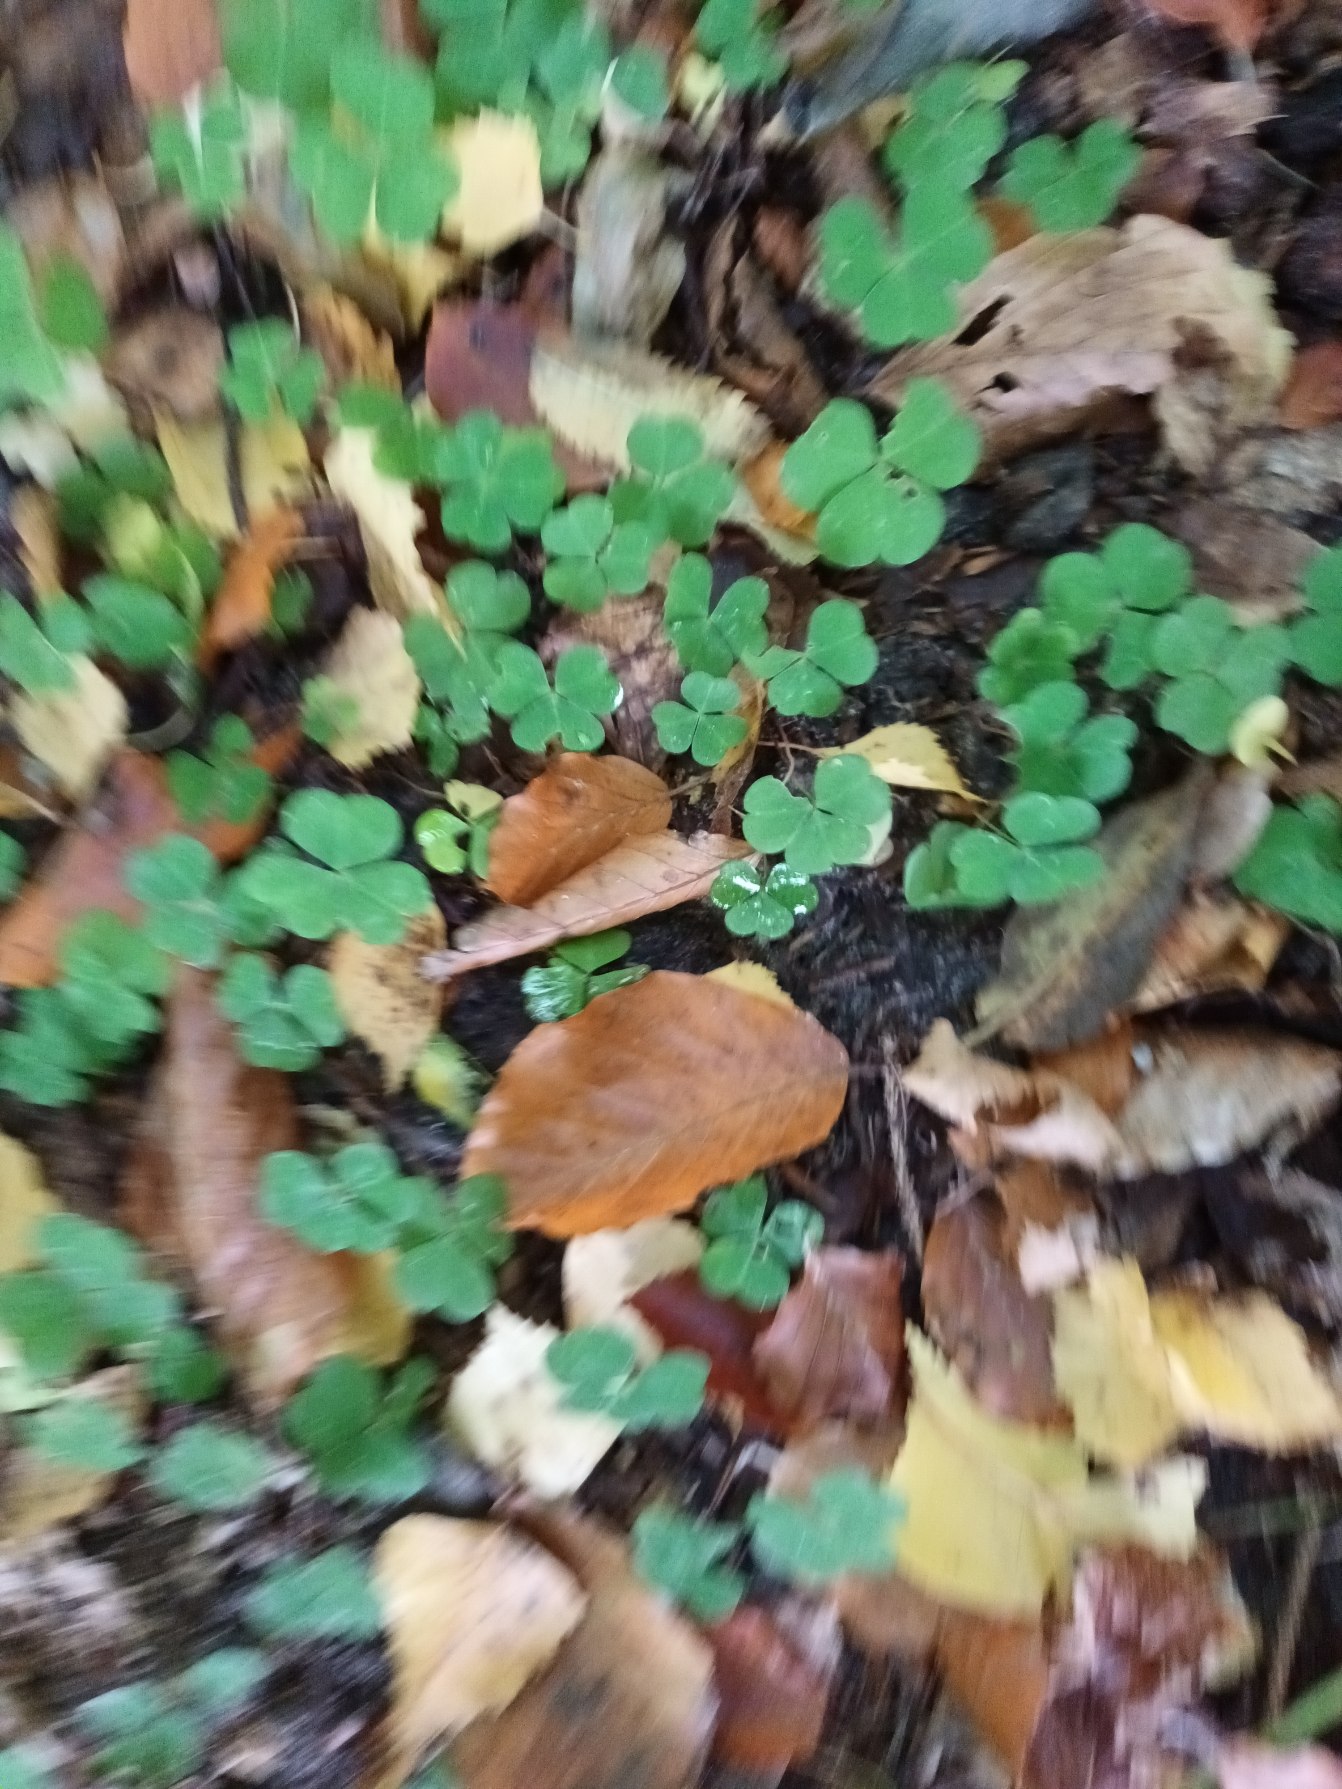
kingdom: Plantae
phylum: Tracheophyta
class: Magnoliopsida
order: Oxalidales
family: Oxalidaceae
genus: Oxalis
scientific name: Oxalis acetosella
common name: Skovsyre
